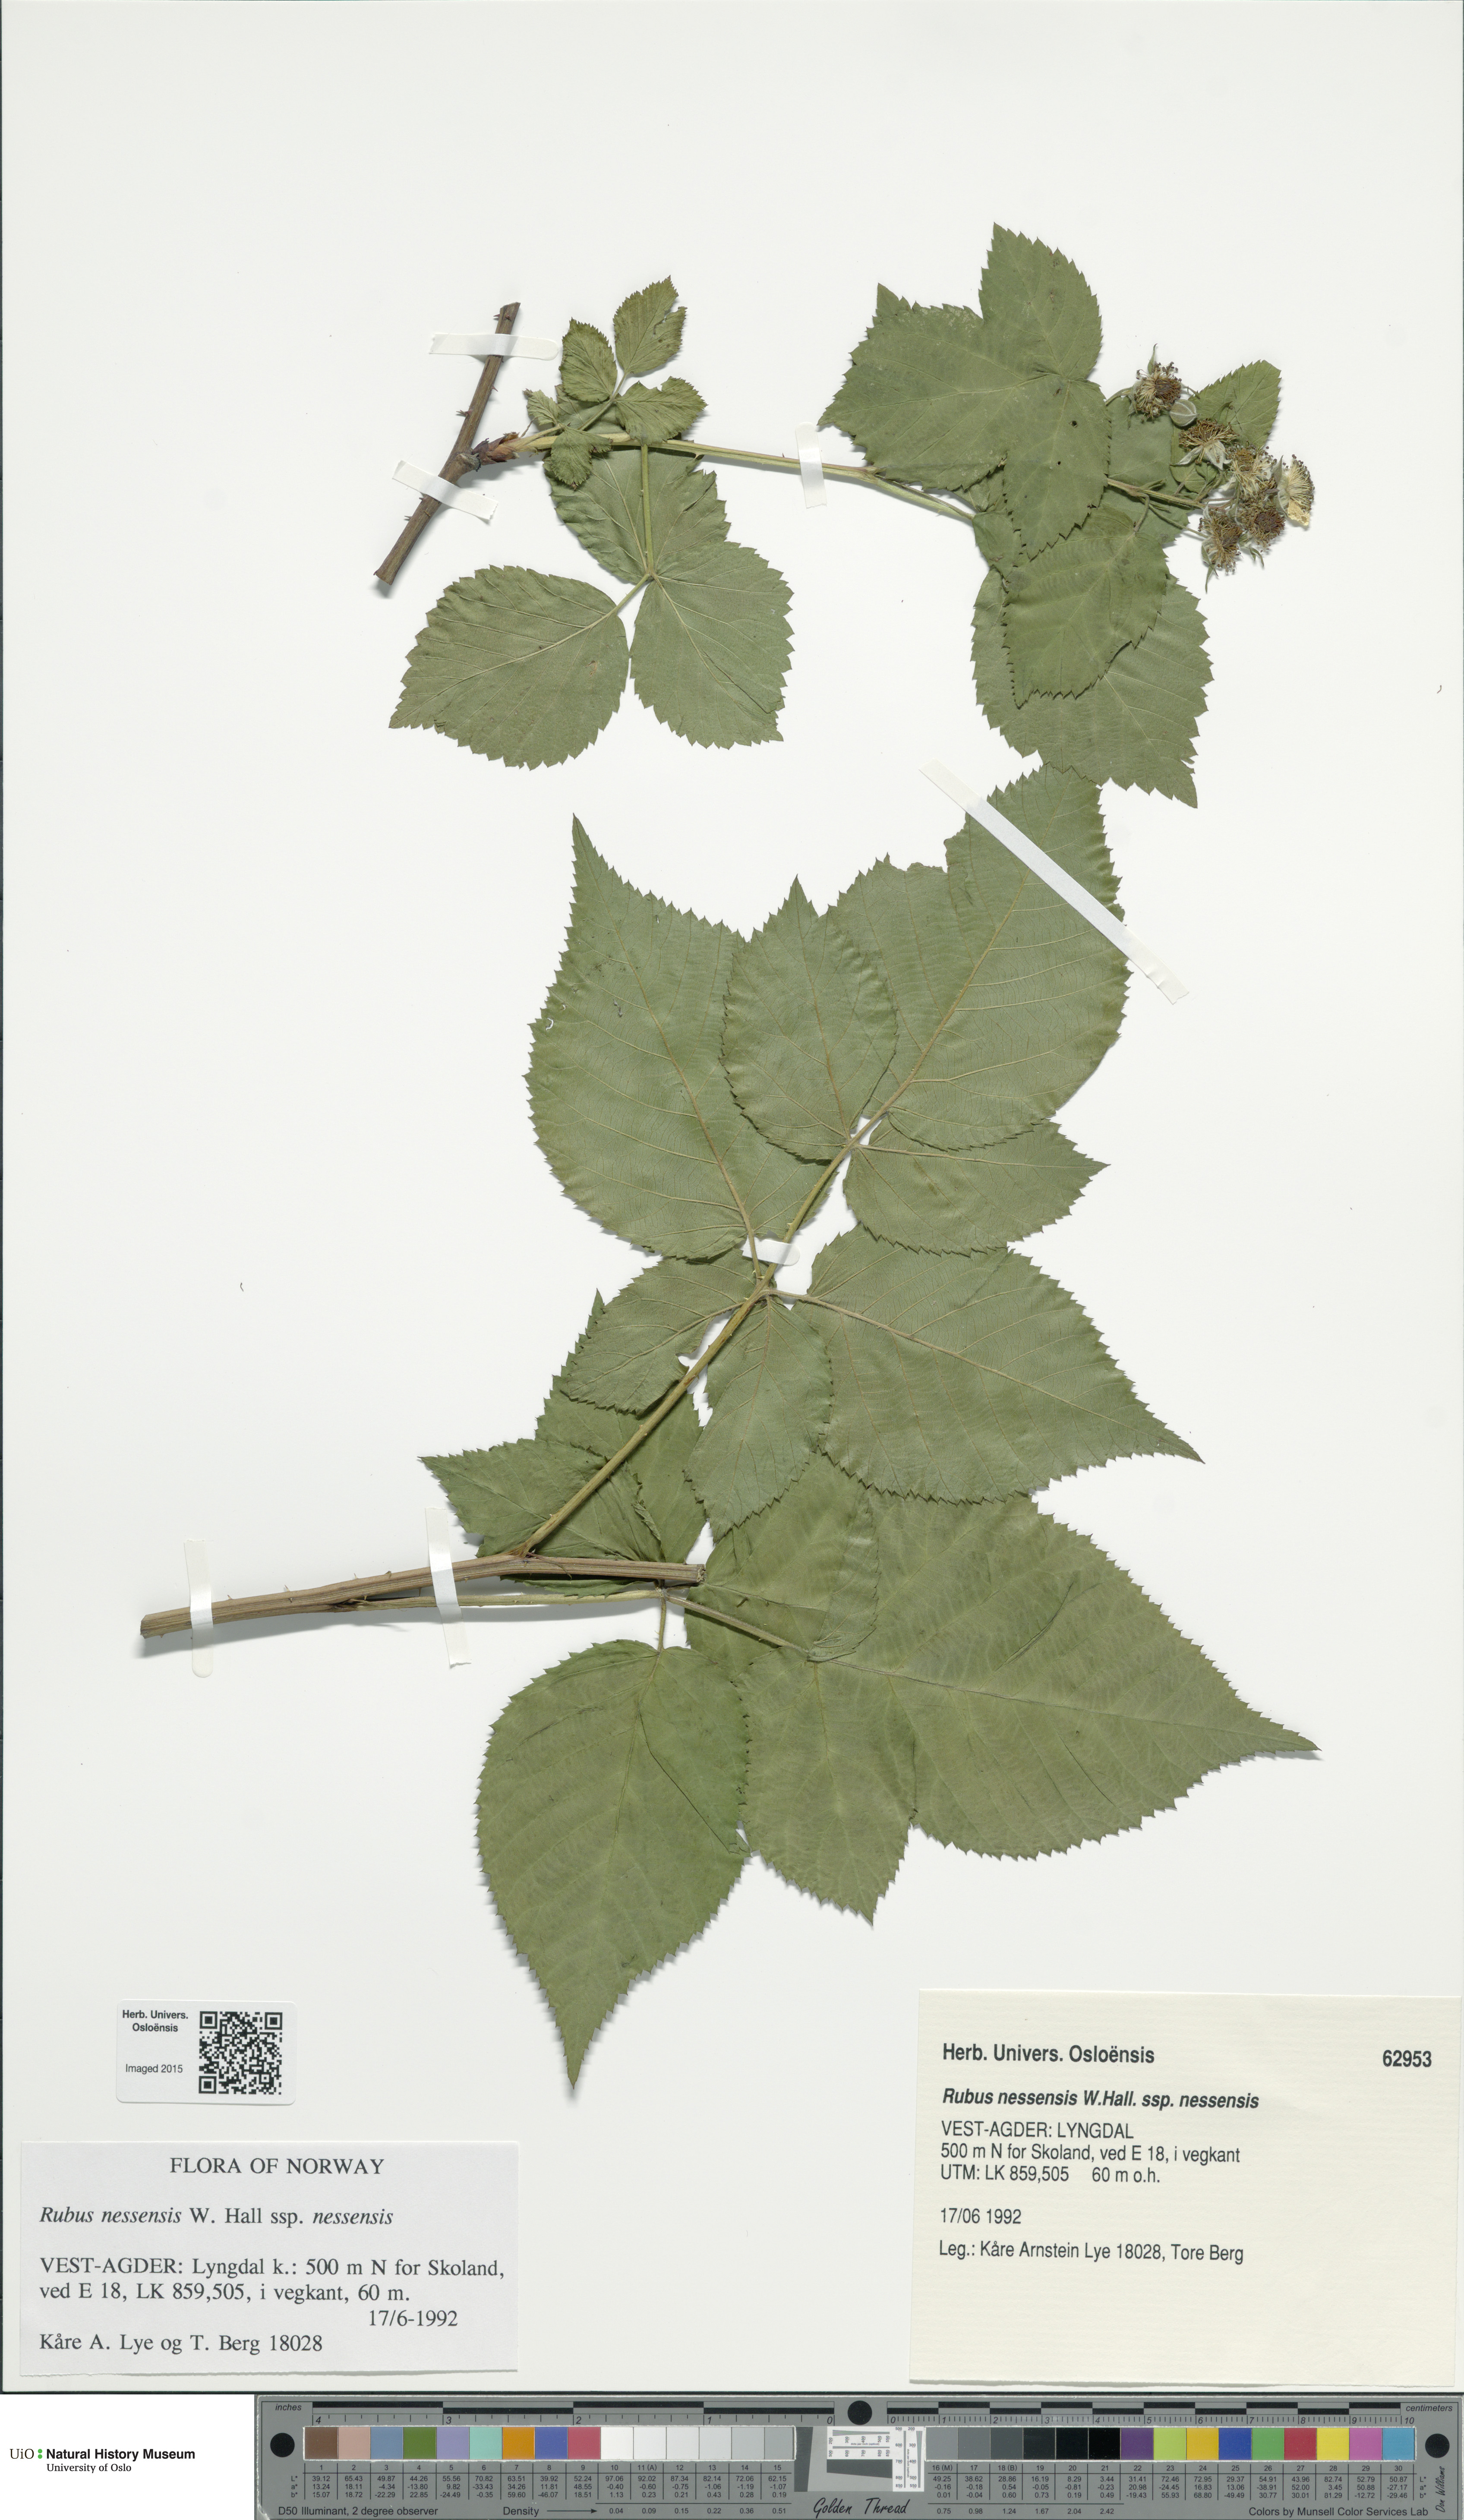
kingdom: Plantae
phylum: Tracheophyta
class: Magnoliopsida
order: Rosales
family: Rosaceae
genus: Rubus
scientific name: Rubus polonicus
